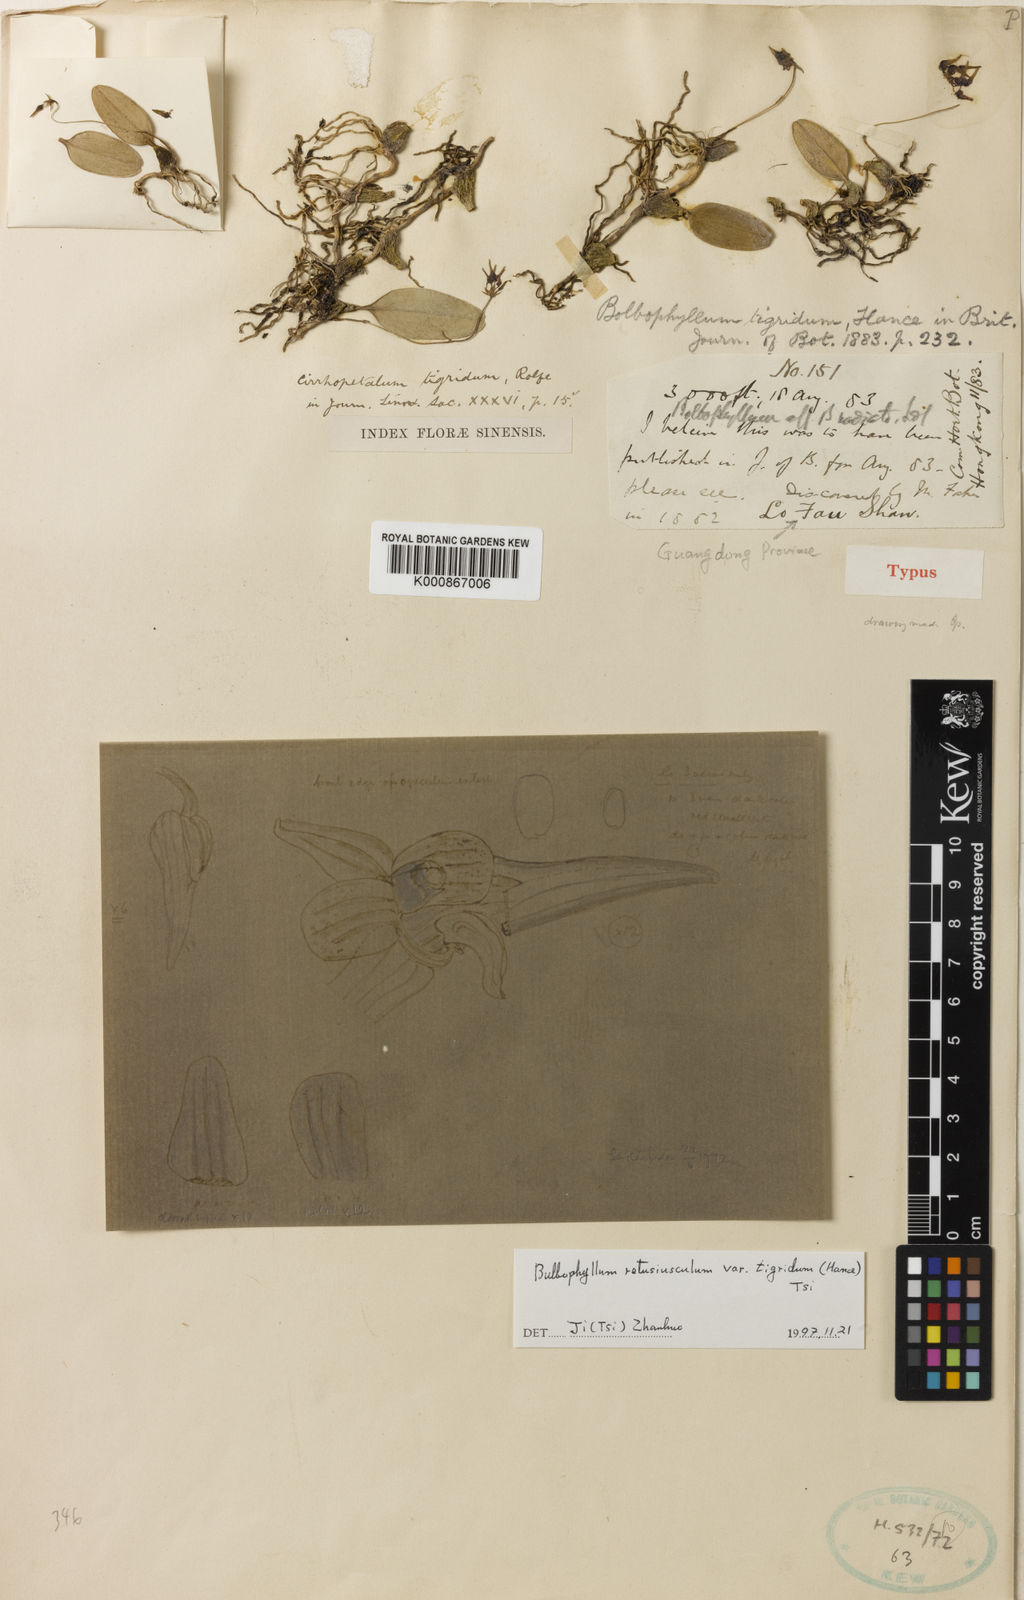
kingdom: Plantae
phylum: Tracheophyta
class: Liliopsida
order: Asparagales
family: Orchidaceae
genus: Bulbophyllum
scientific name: Bulbophyllum tigridum
